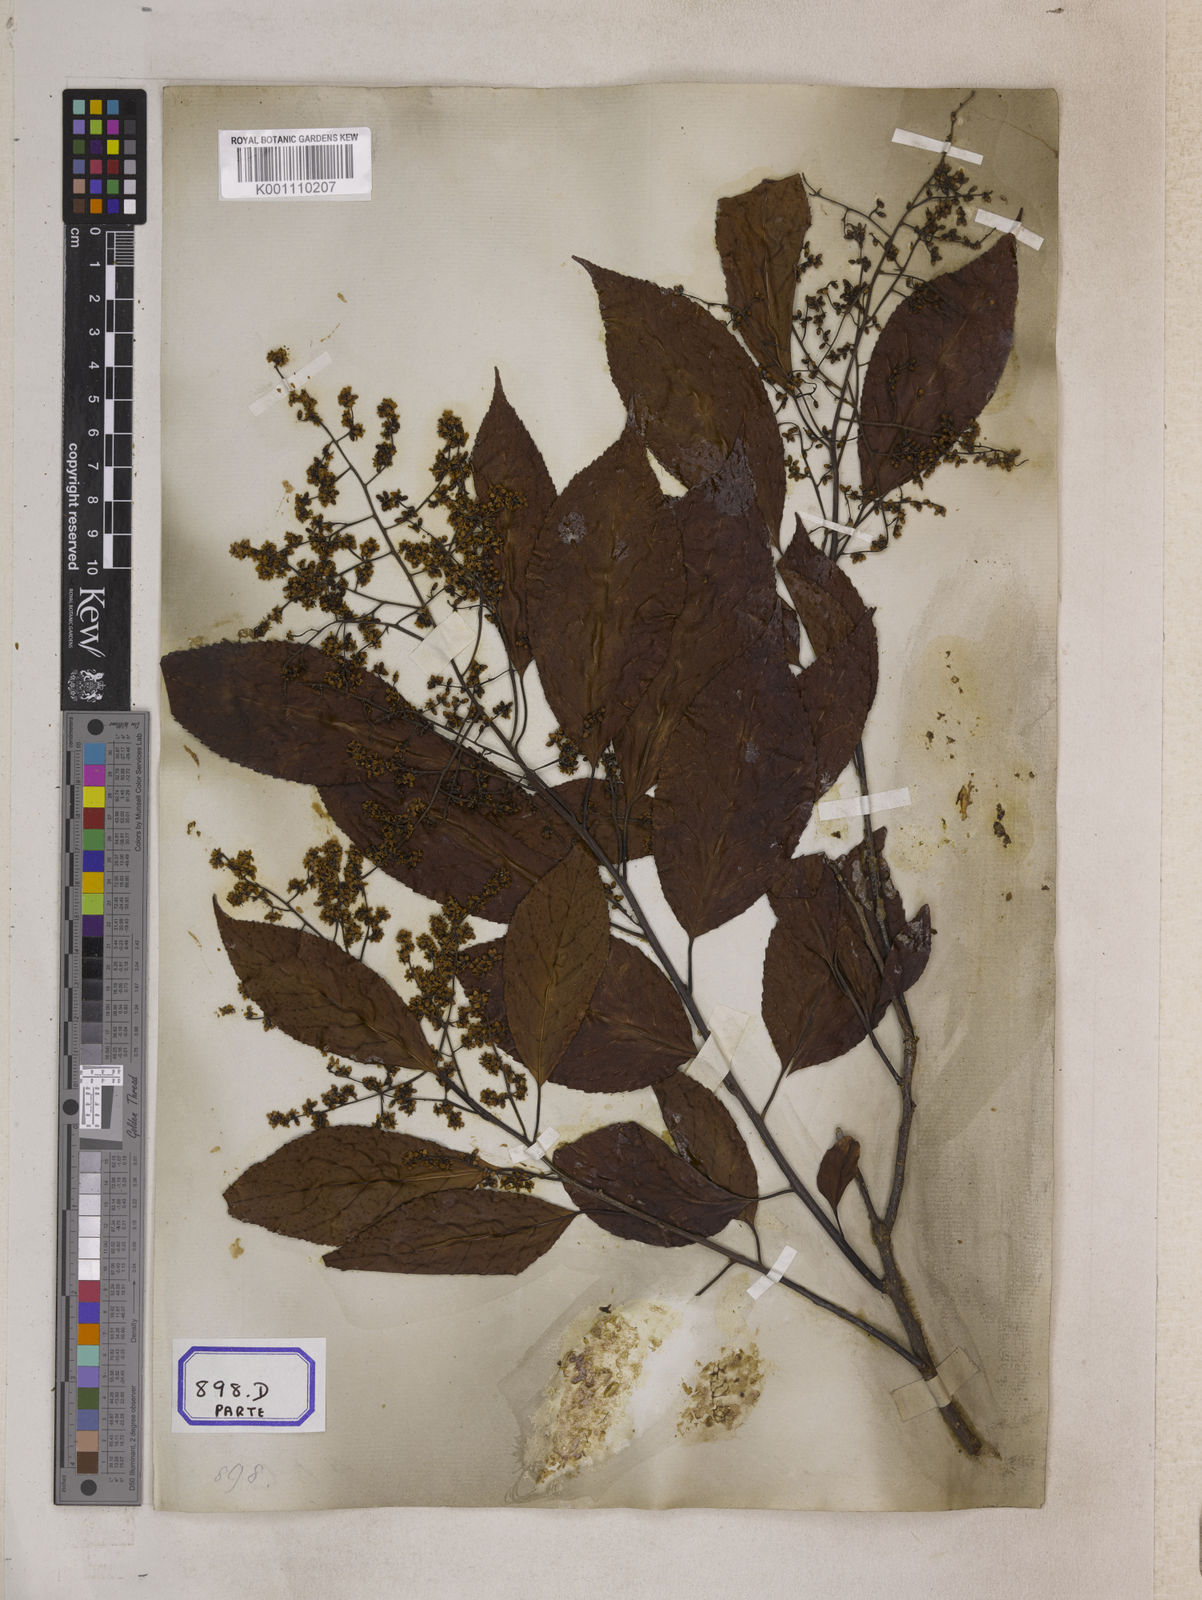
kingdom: Plantae
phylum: Tracheophyta
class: Magnoliopsida
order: Boraginales
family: Ehretiaceae
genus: Ehretia
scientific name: Ehretia acuminata
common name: Kodo wood
